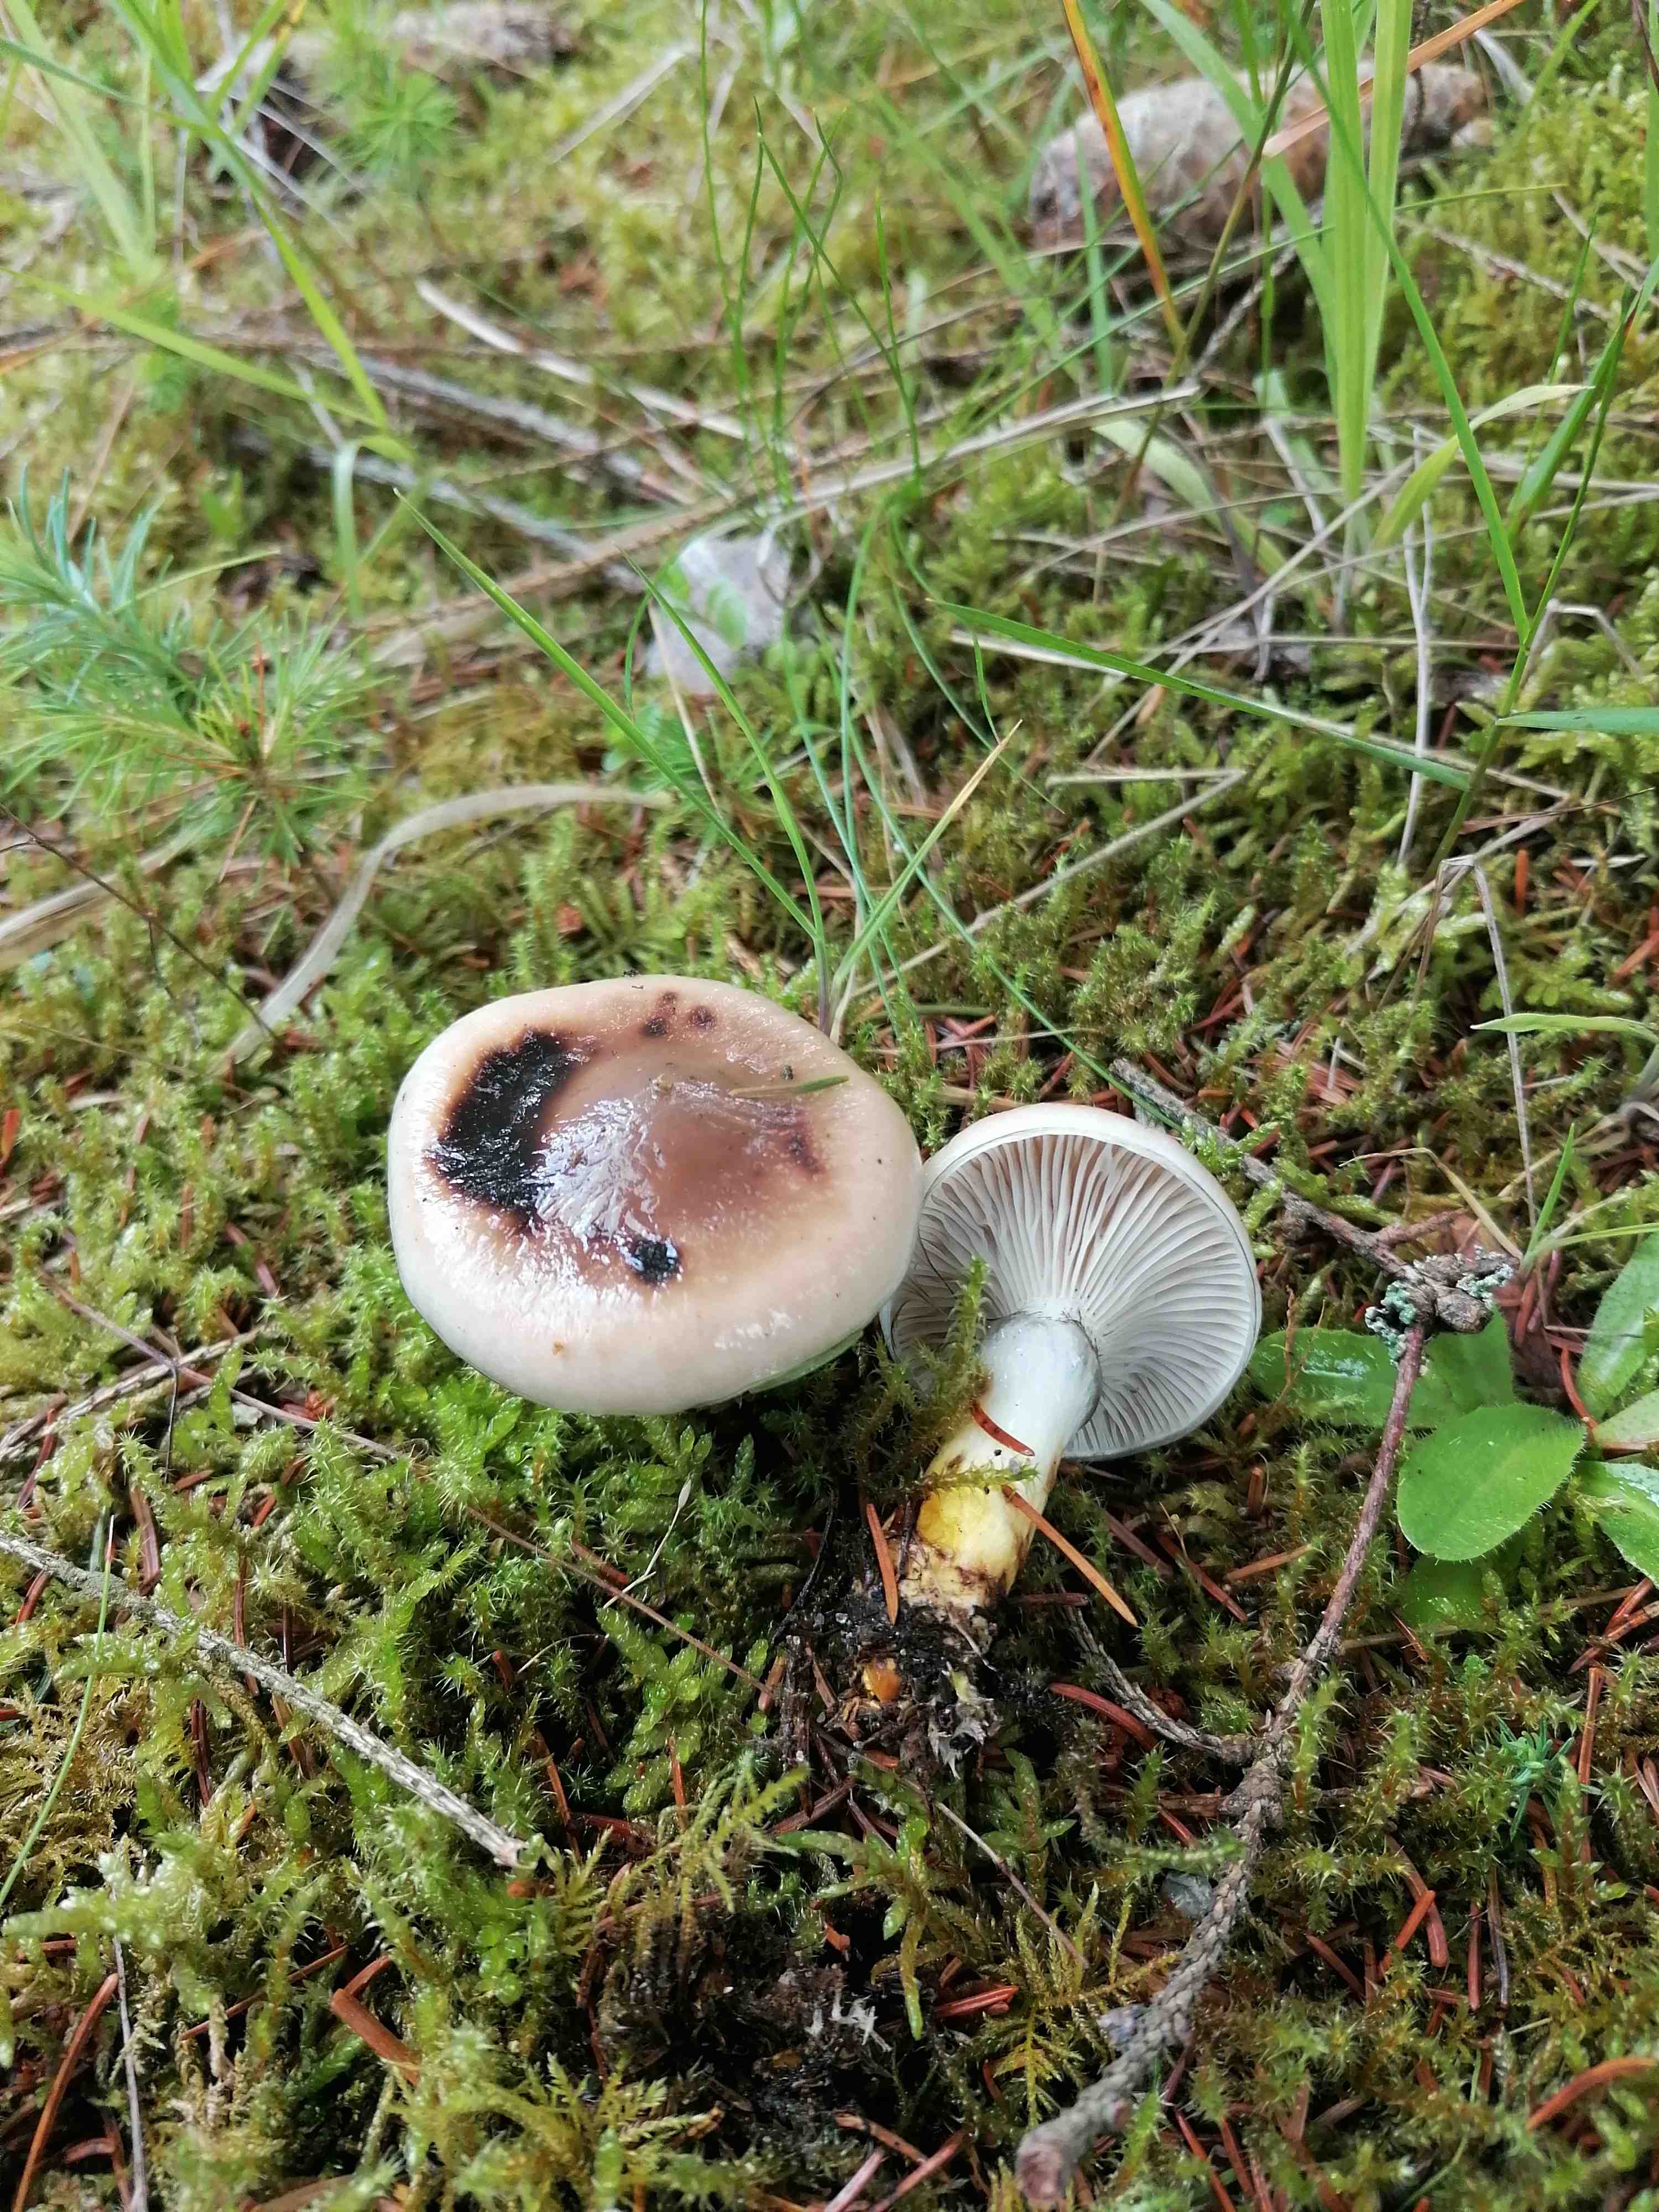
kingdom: Fungi
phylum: Basidiomycota
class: Agaricomycetes
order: Boletales
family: Gomphidiaceae
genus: Gomphidius
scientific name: Gomphidius glutinosus
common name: grå slimslør
